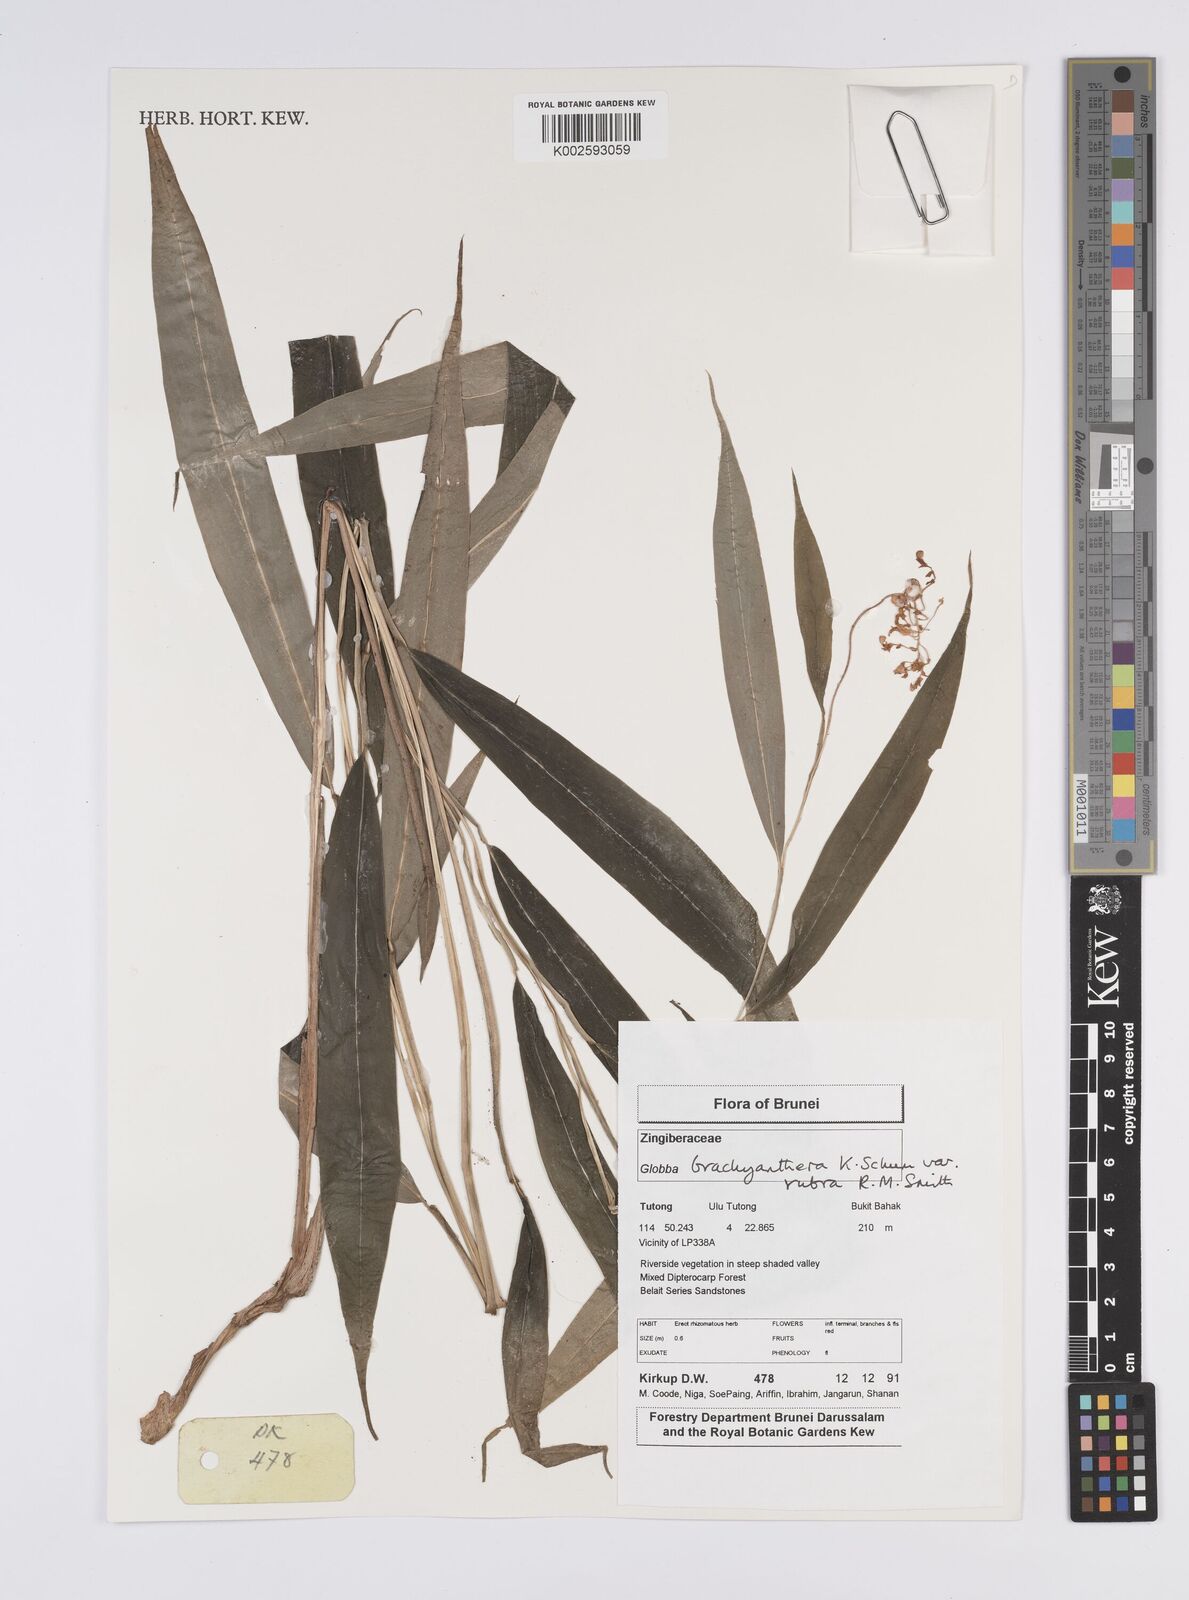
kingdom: Plantae
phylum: Tracheophyta
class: Liliopsida
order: Zingiberales
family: Zingiberaceae
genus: Globba
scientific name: Globba brachyanthera
